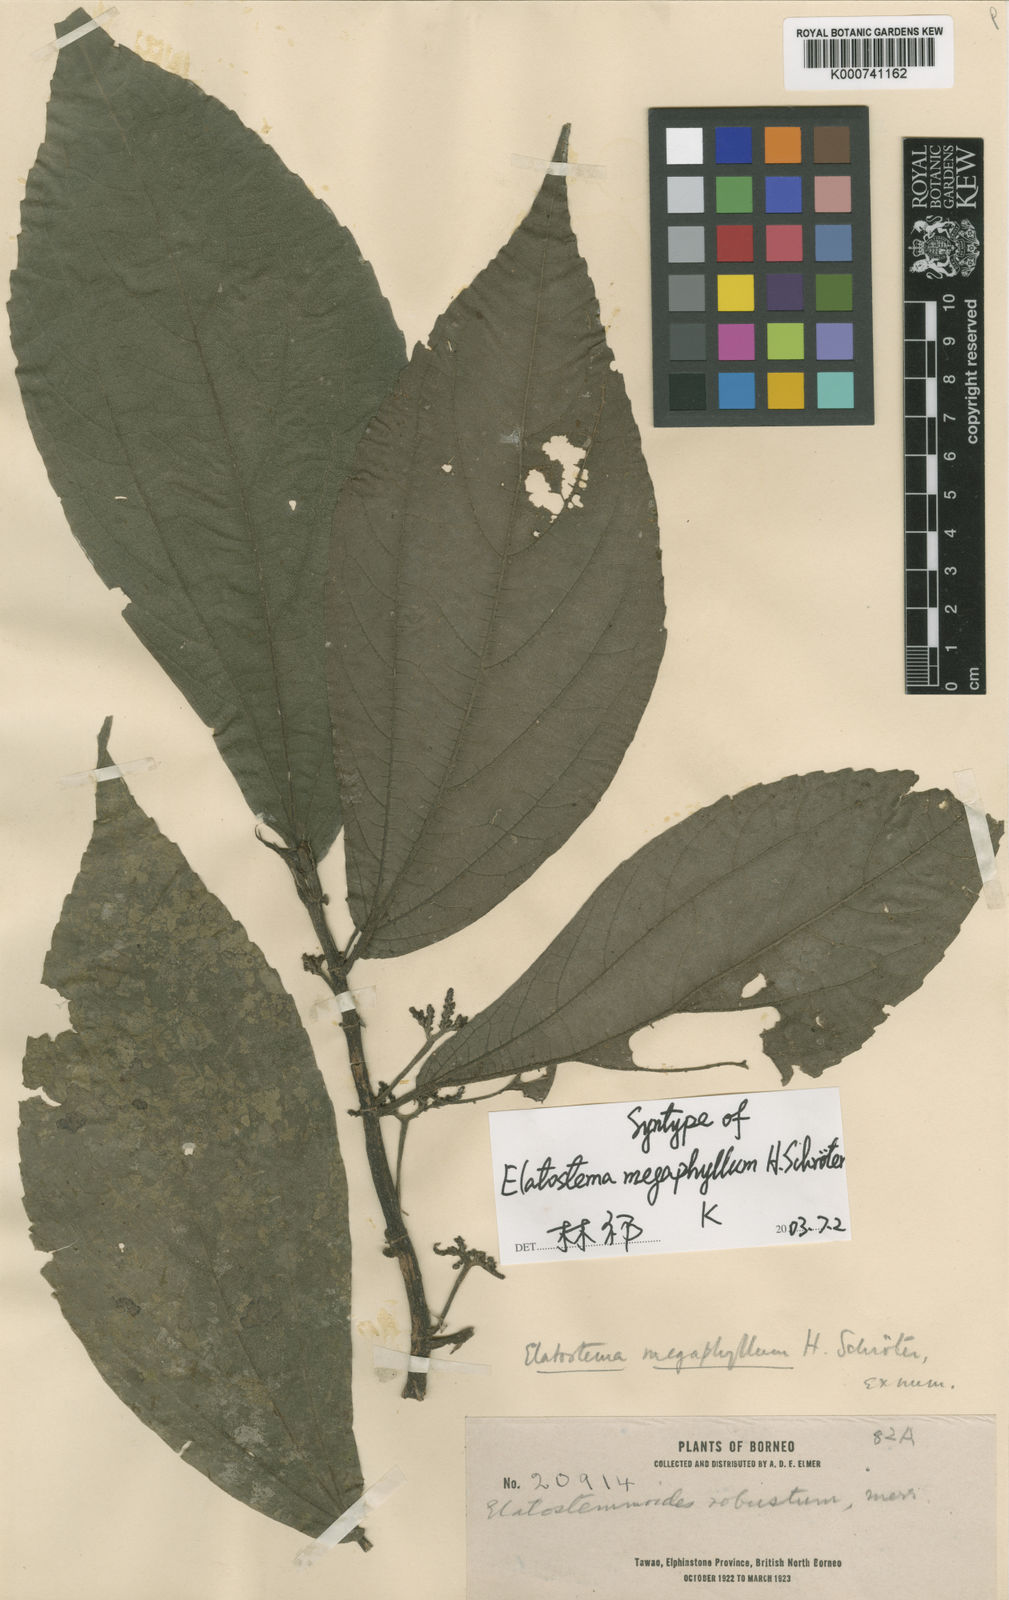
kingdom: Plantae
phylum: Tracheophyta
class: Magnoliopsida
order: Rosales
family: Urticaceae
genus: Elatostema
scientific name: Elatostema megaphyllum
